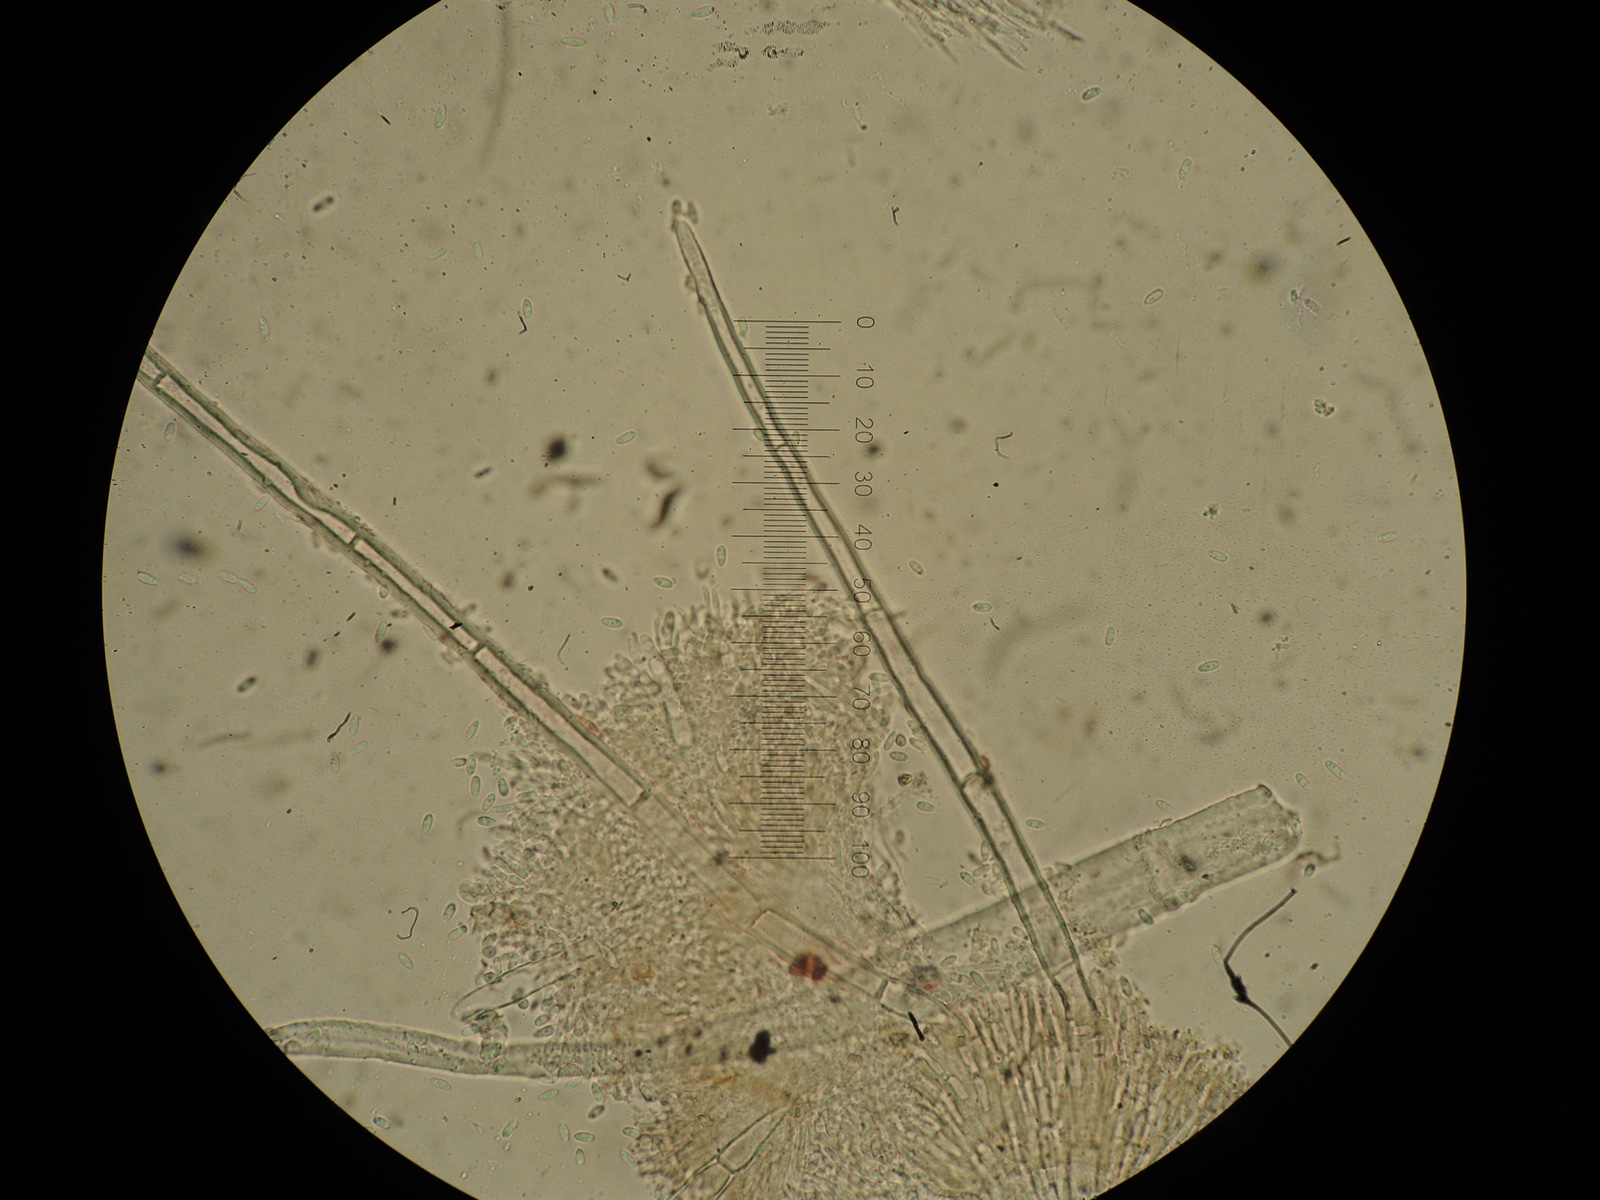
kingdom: Fungi
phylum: Ascomycota
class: Sordariomycetes
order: Hypocreales
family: Nectriaceae
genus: Scolecofusarium
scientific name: Scolecofusarium ciliatum
